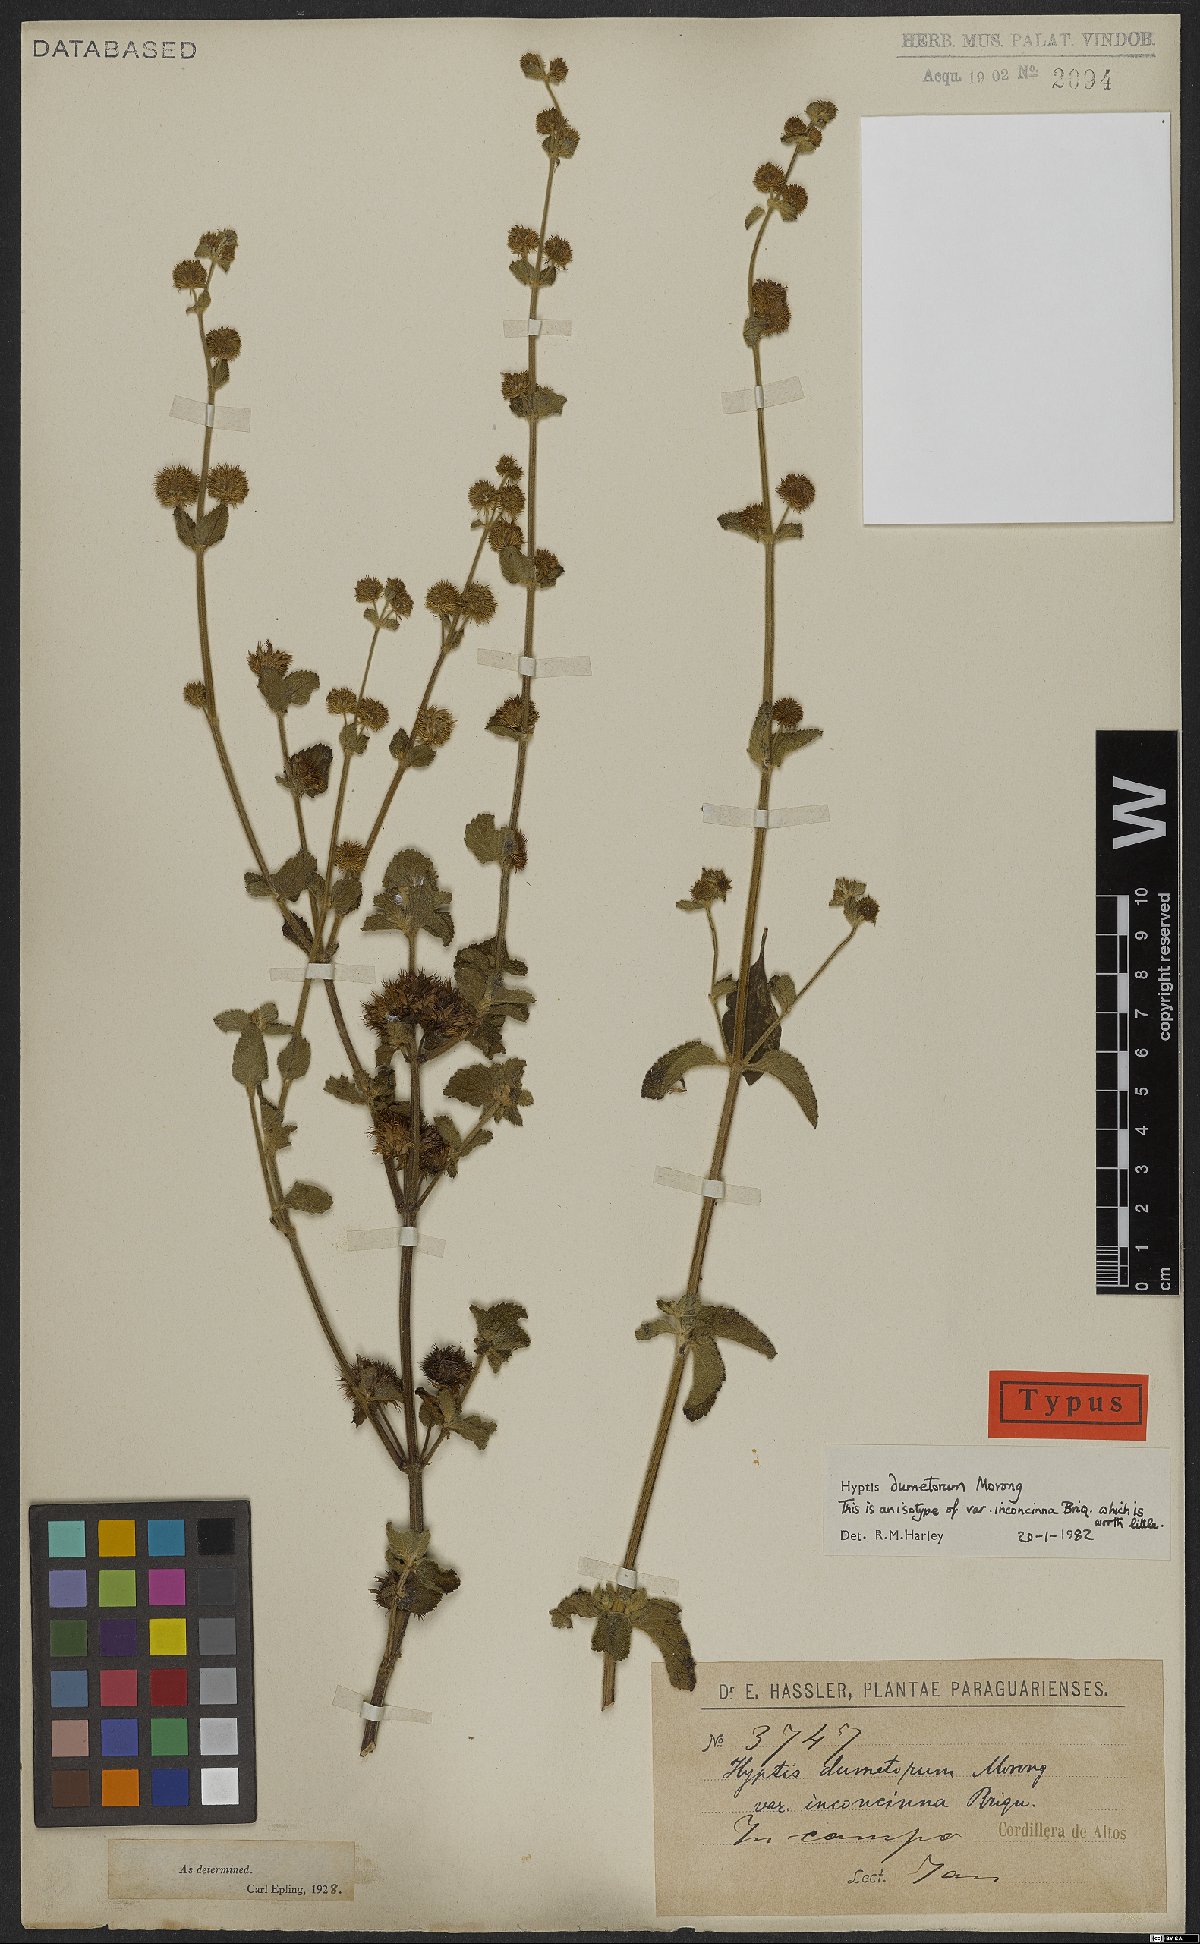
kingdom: Plantae
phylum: Tracheophyta
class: Magnoliopsida
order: Lamiales
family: Lamiaceae
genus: Hyptis
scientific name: Hyptis dumetorum
